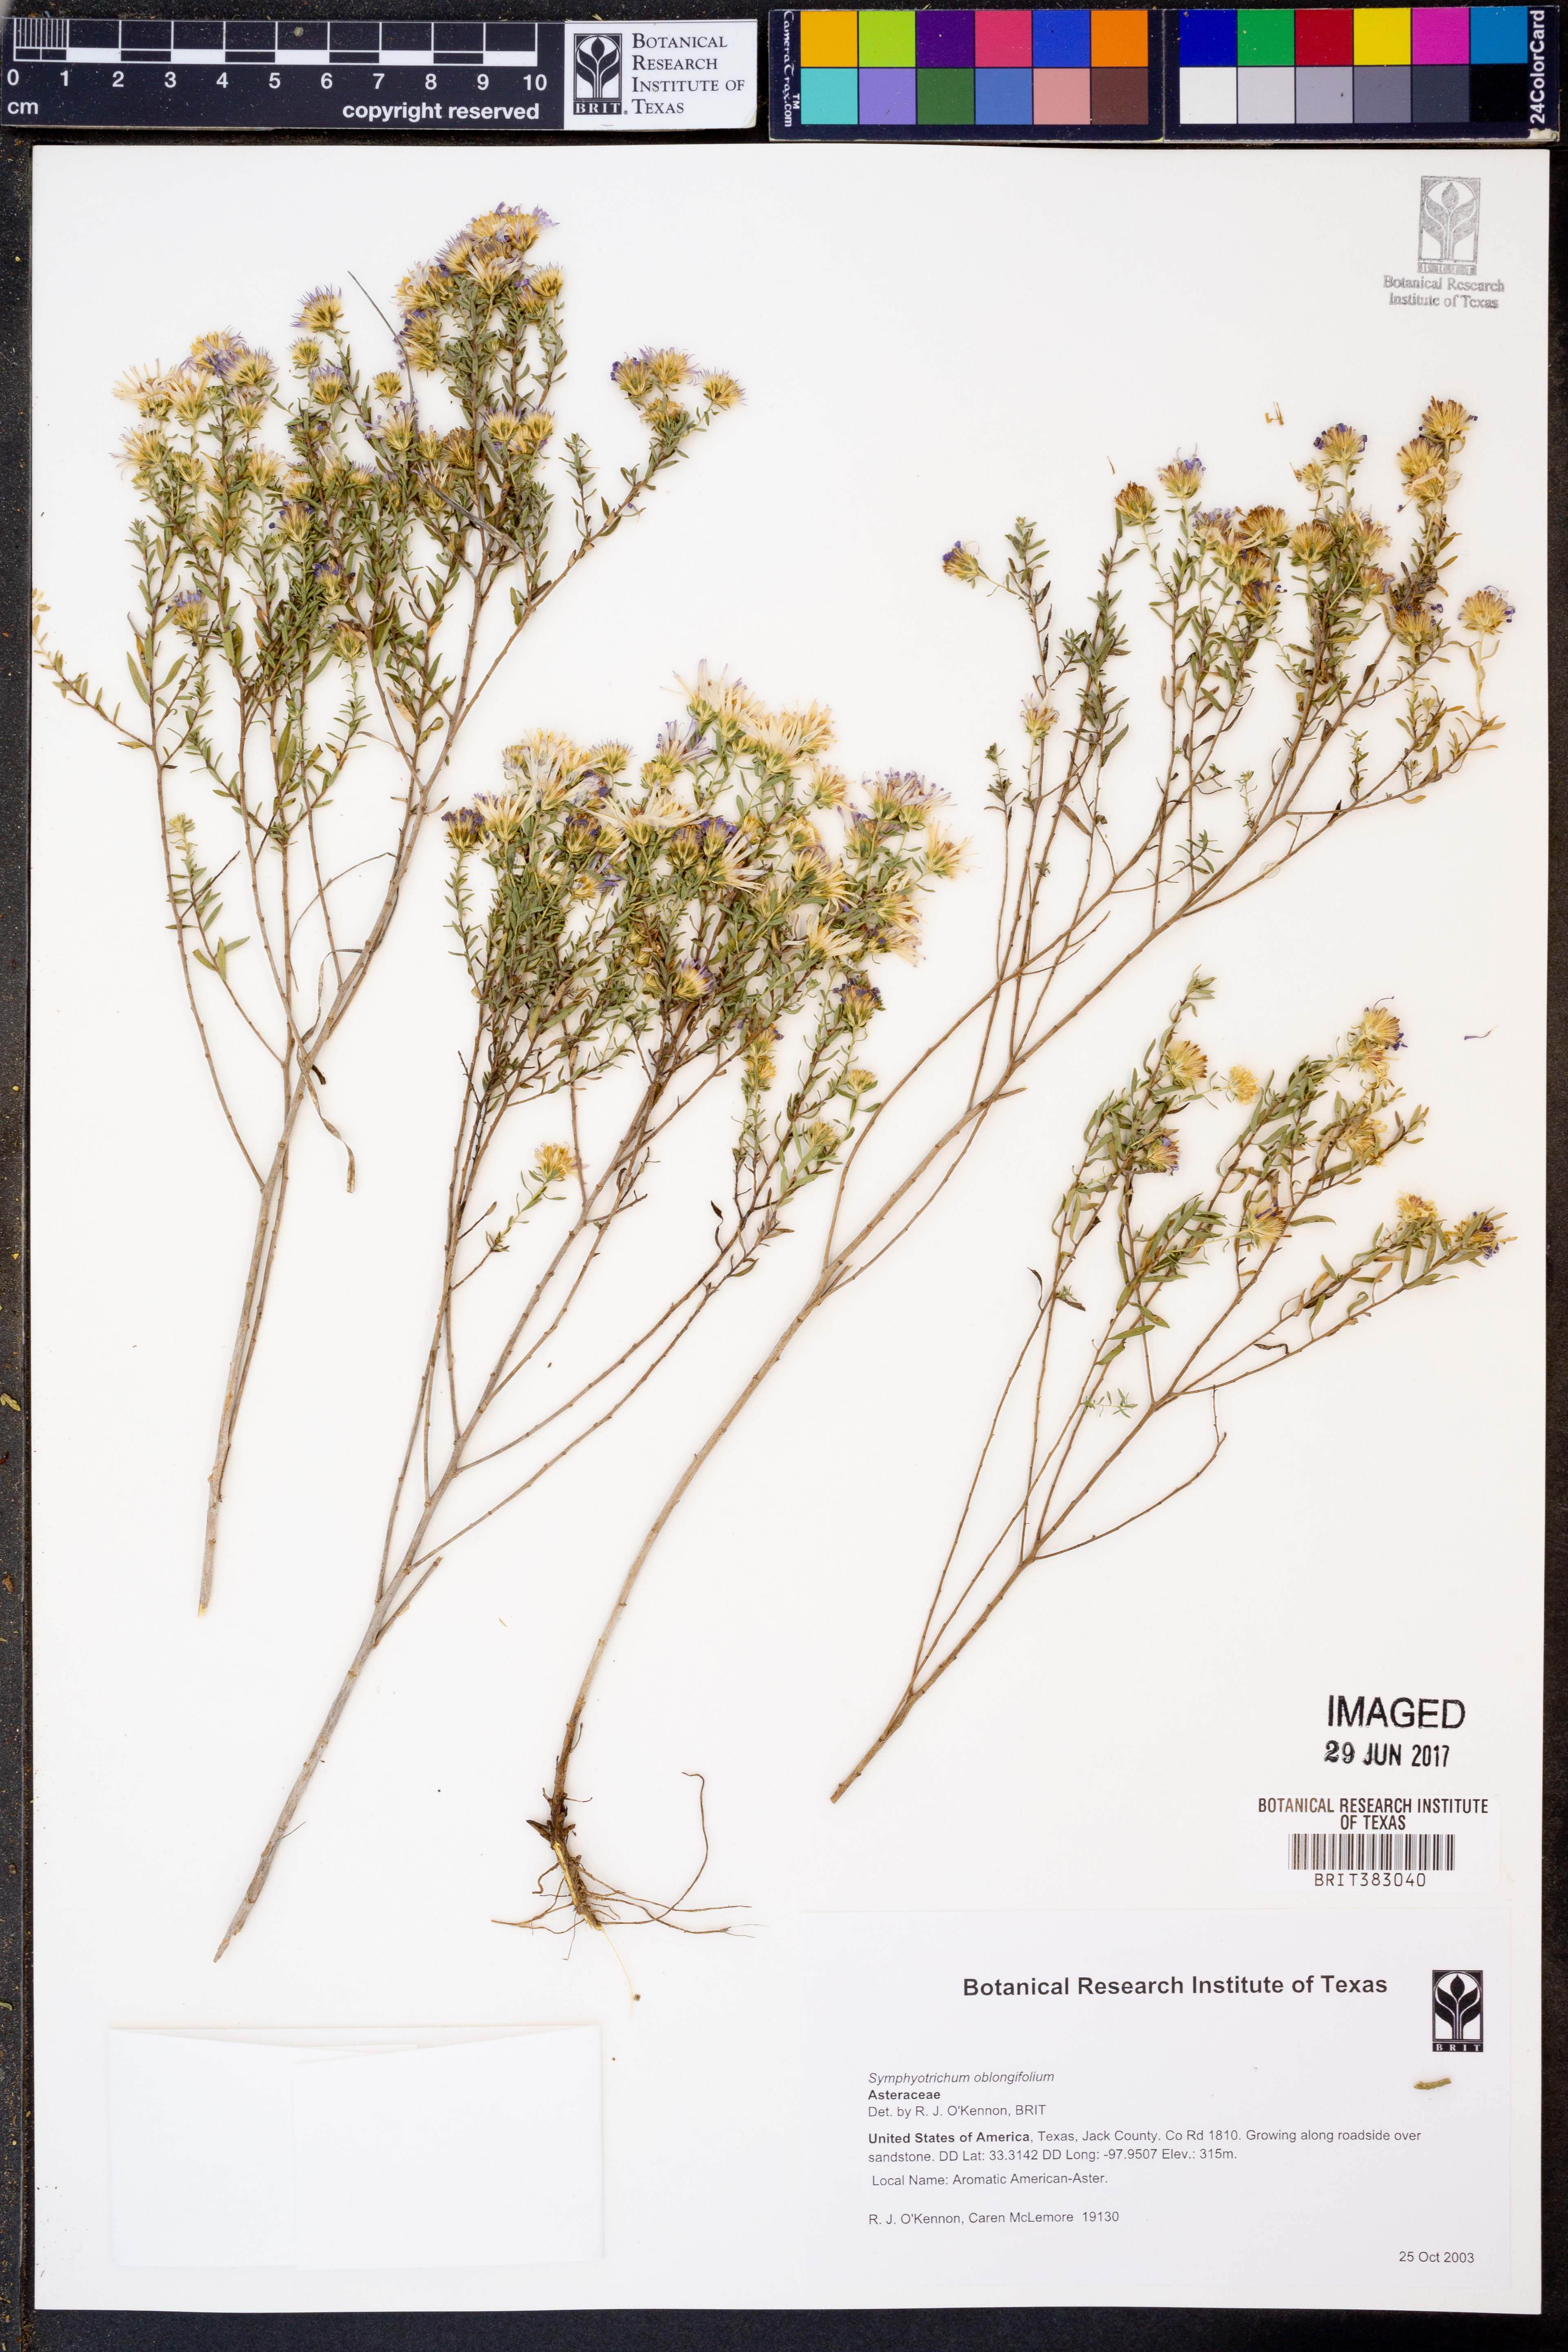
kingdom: Plantae
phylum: Tracheophyta
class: Magnoliopsida
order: Asterales
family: Asteraceae
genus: Symphyotrichum
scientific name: Symphyotrichum oblongifolium
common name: Aromatic aster
